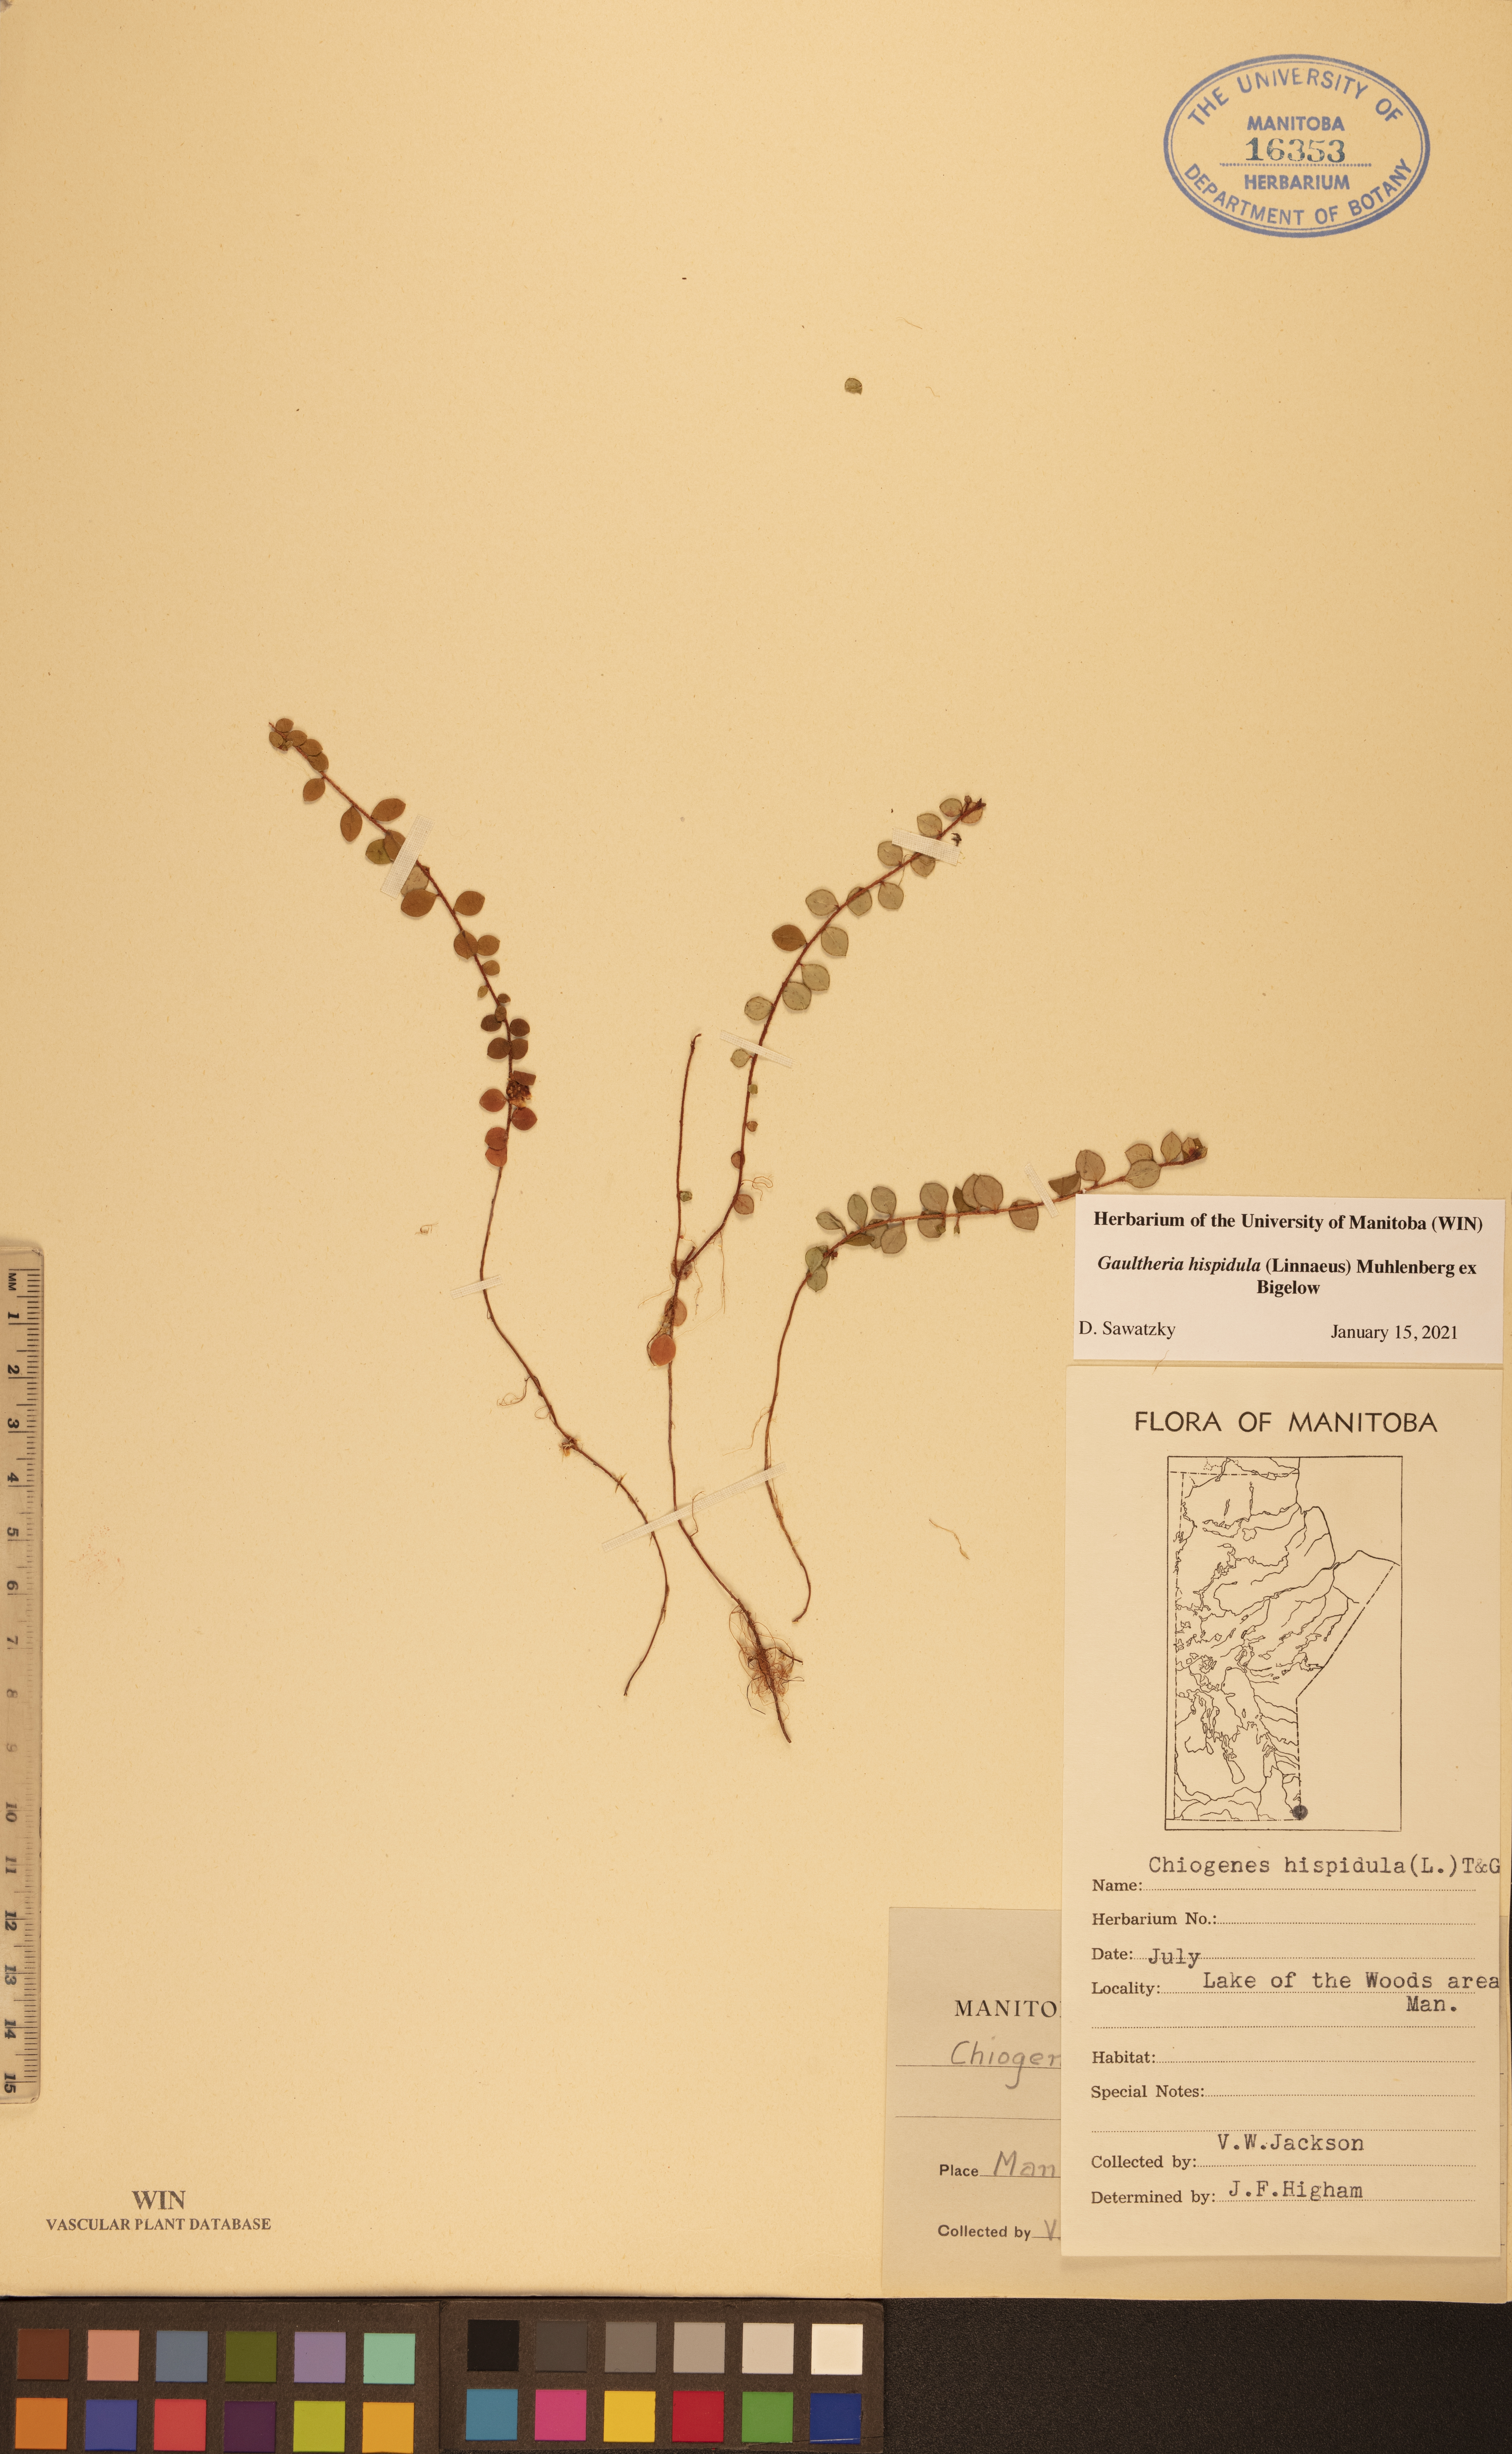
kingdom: Plantae
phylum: Tracheophyta
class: Magnoliopsida
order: Ericales
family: Ericaceae
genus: Gaultheria
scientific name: Gaultheria hispidula
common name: Cancer wintergreen
